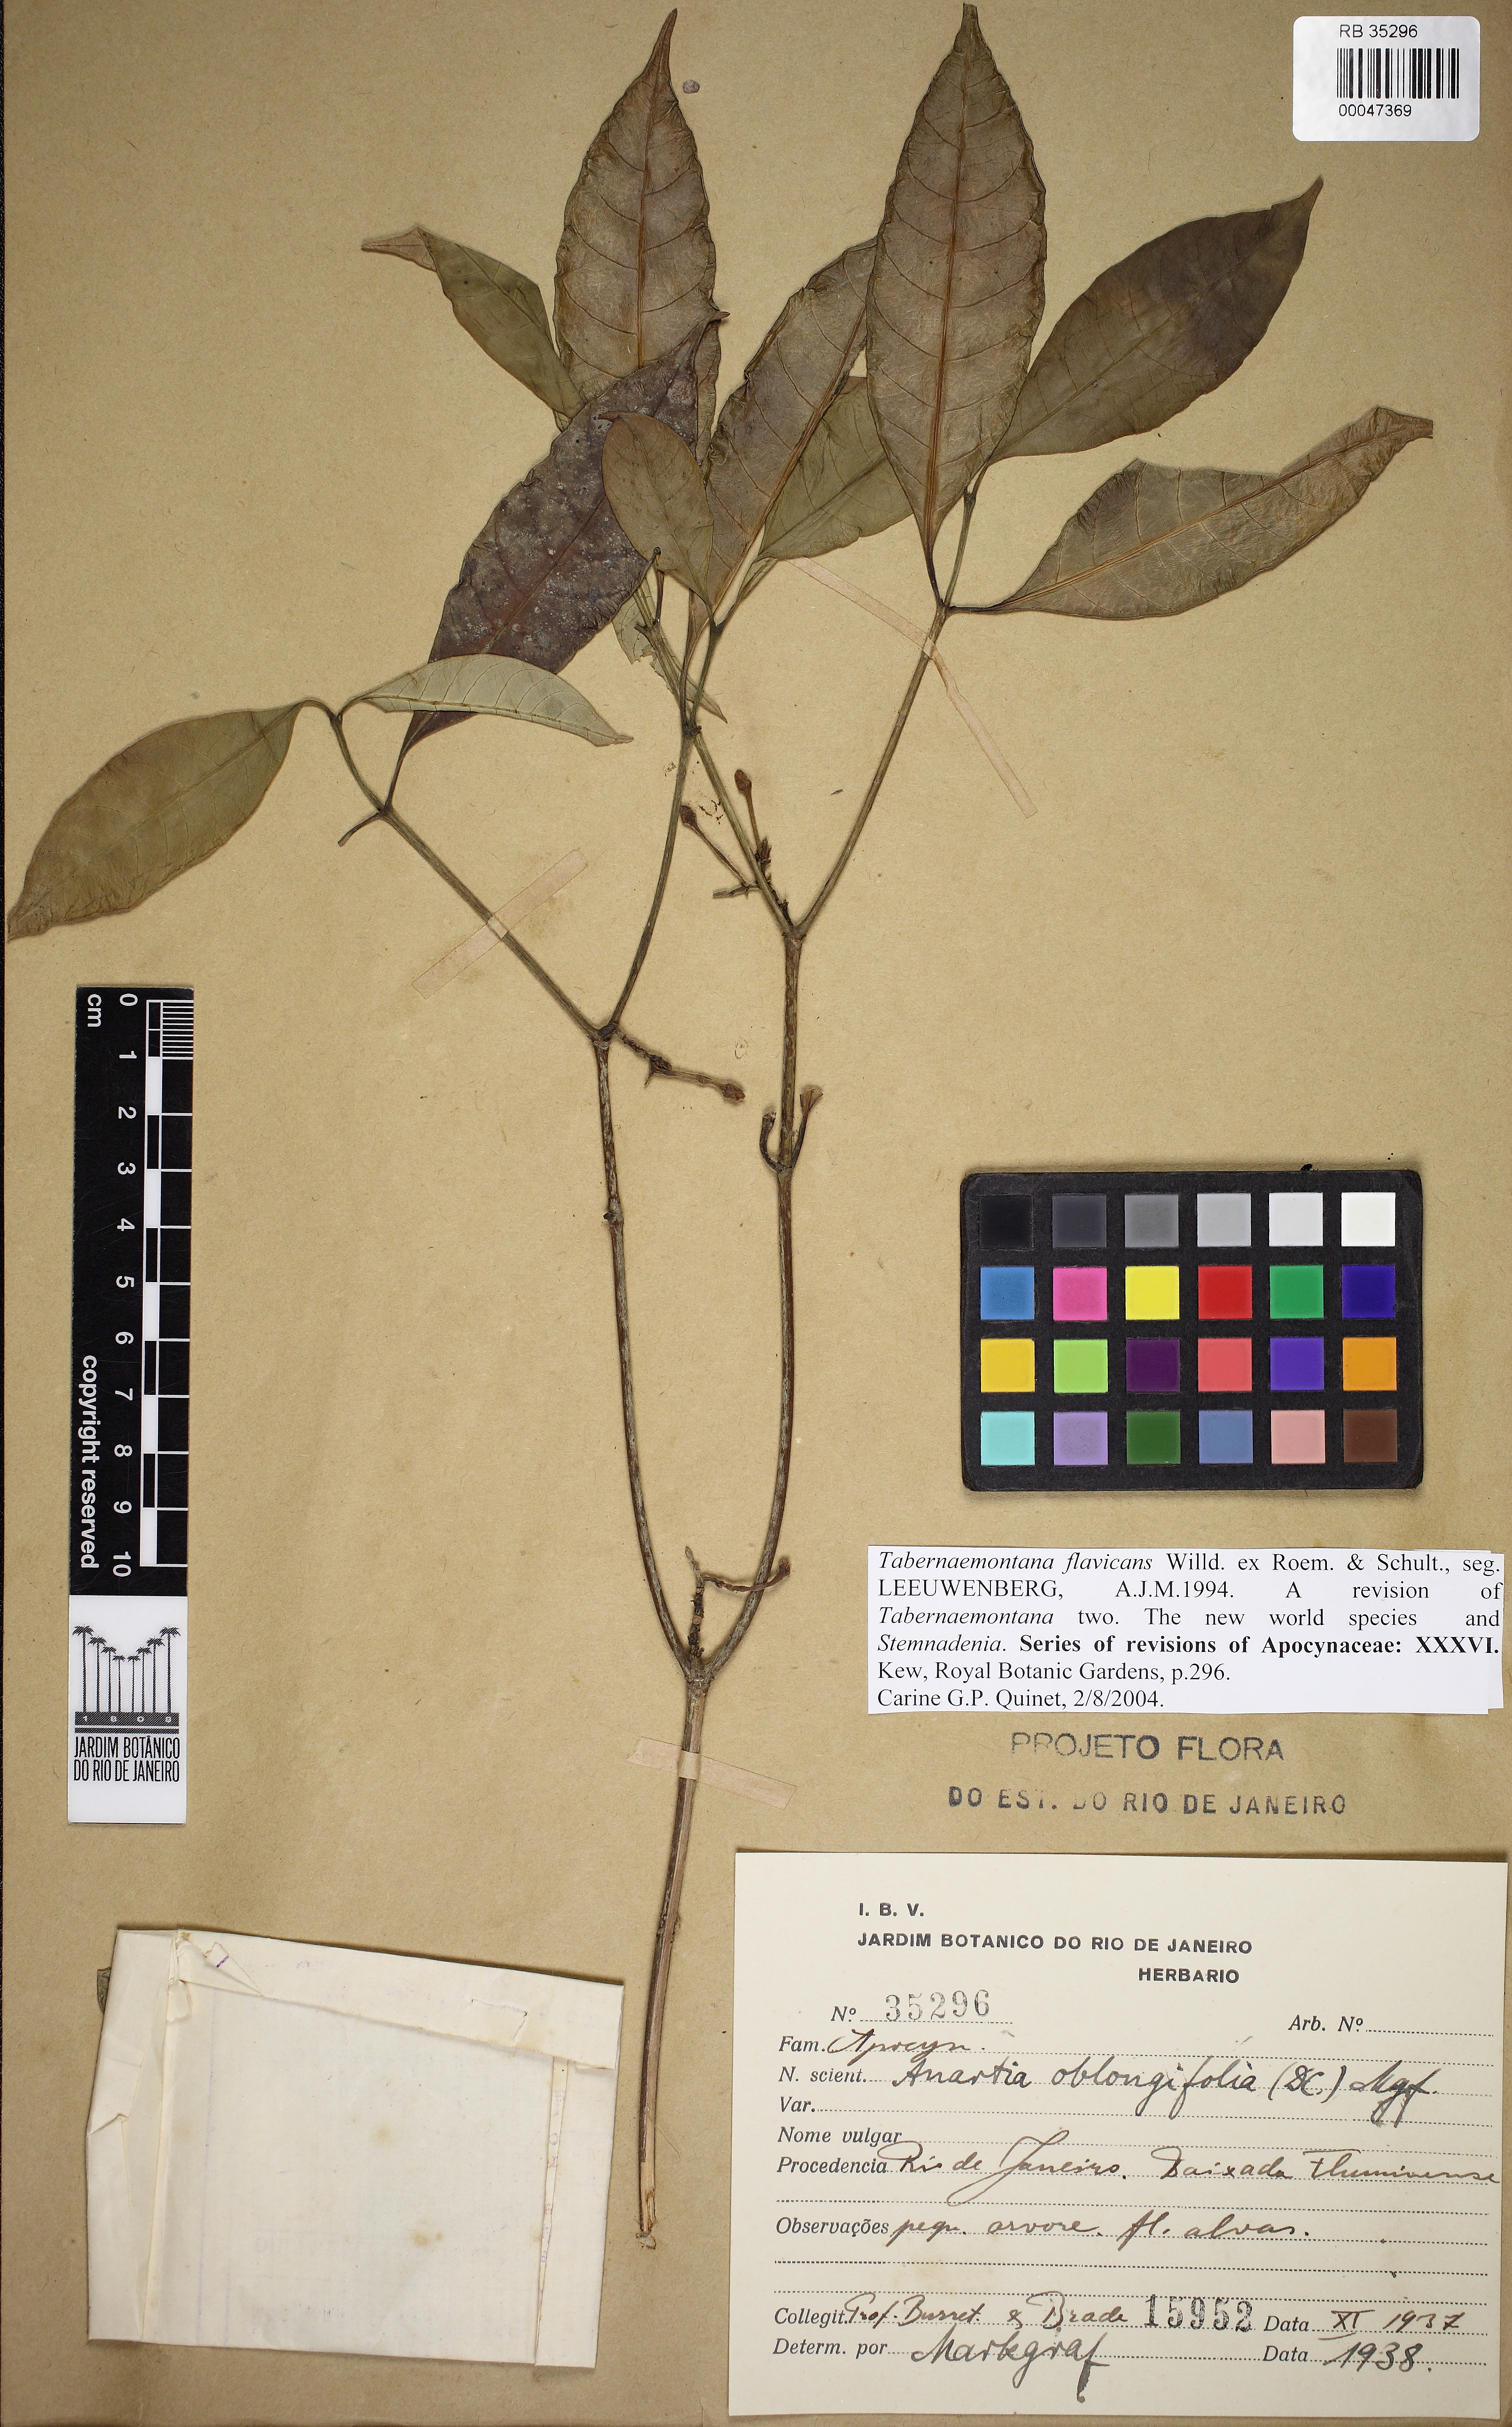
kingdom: Plantae
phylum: Tracheophyta
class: Magnoliopsida
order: Gentianales
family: Apocynaceae
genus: Tabernaemontana
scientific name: Tabernaemontana flavicans
